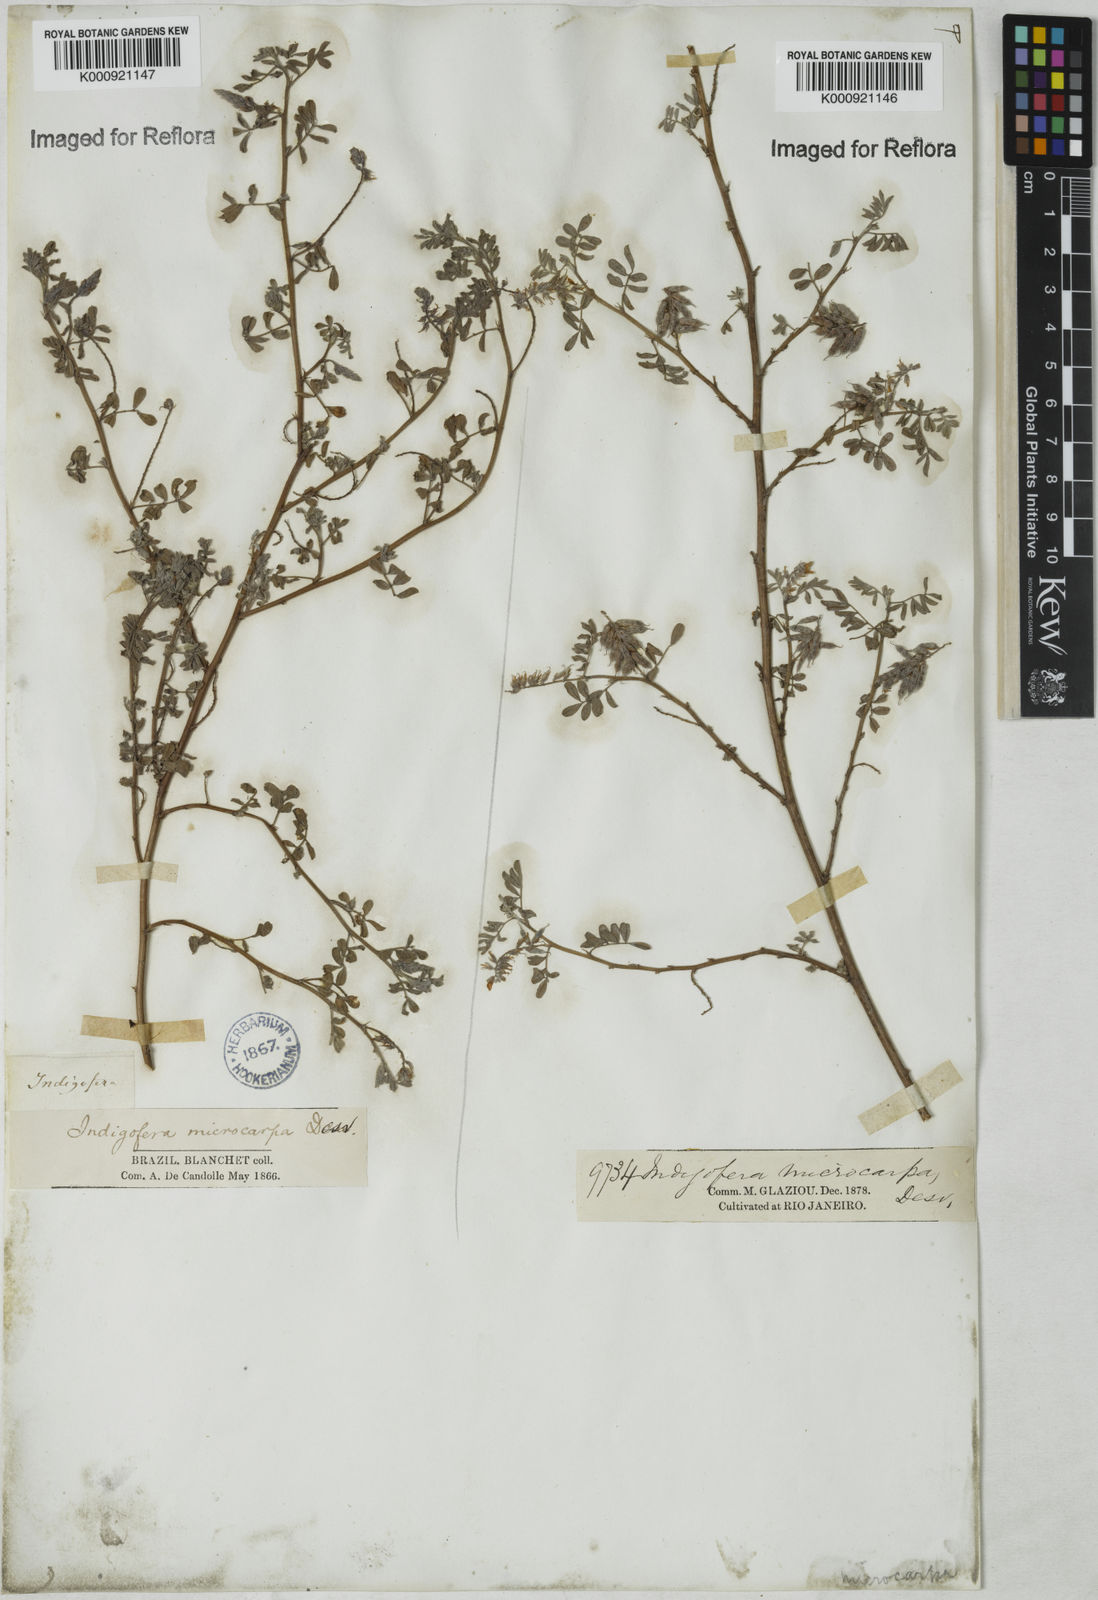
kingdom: Plantae
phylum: Tracheophyta
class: Magnoliopsida
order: Fabales
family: Fabaceae
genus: Indigofera
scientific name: Indigofera microcarpa
